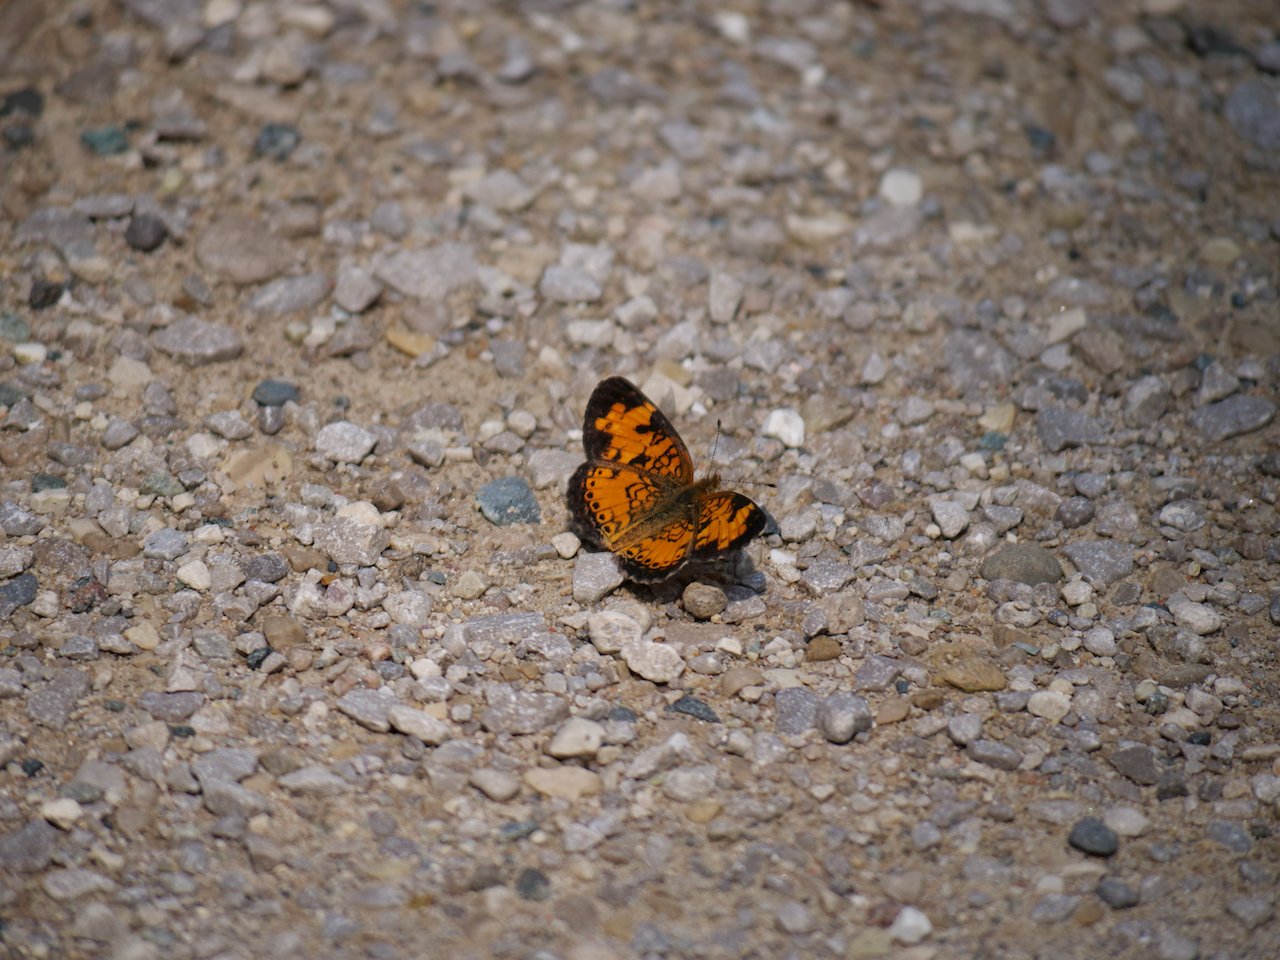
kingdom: Animalia
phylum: Arthropoda
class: Insecta
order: Lepidoptera
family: Nymphalidae
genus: Phyciodes
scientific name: Phyciodes tharos
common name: Northern Crescent
